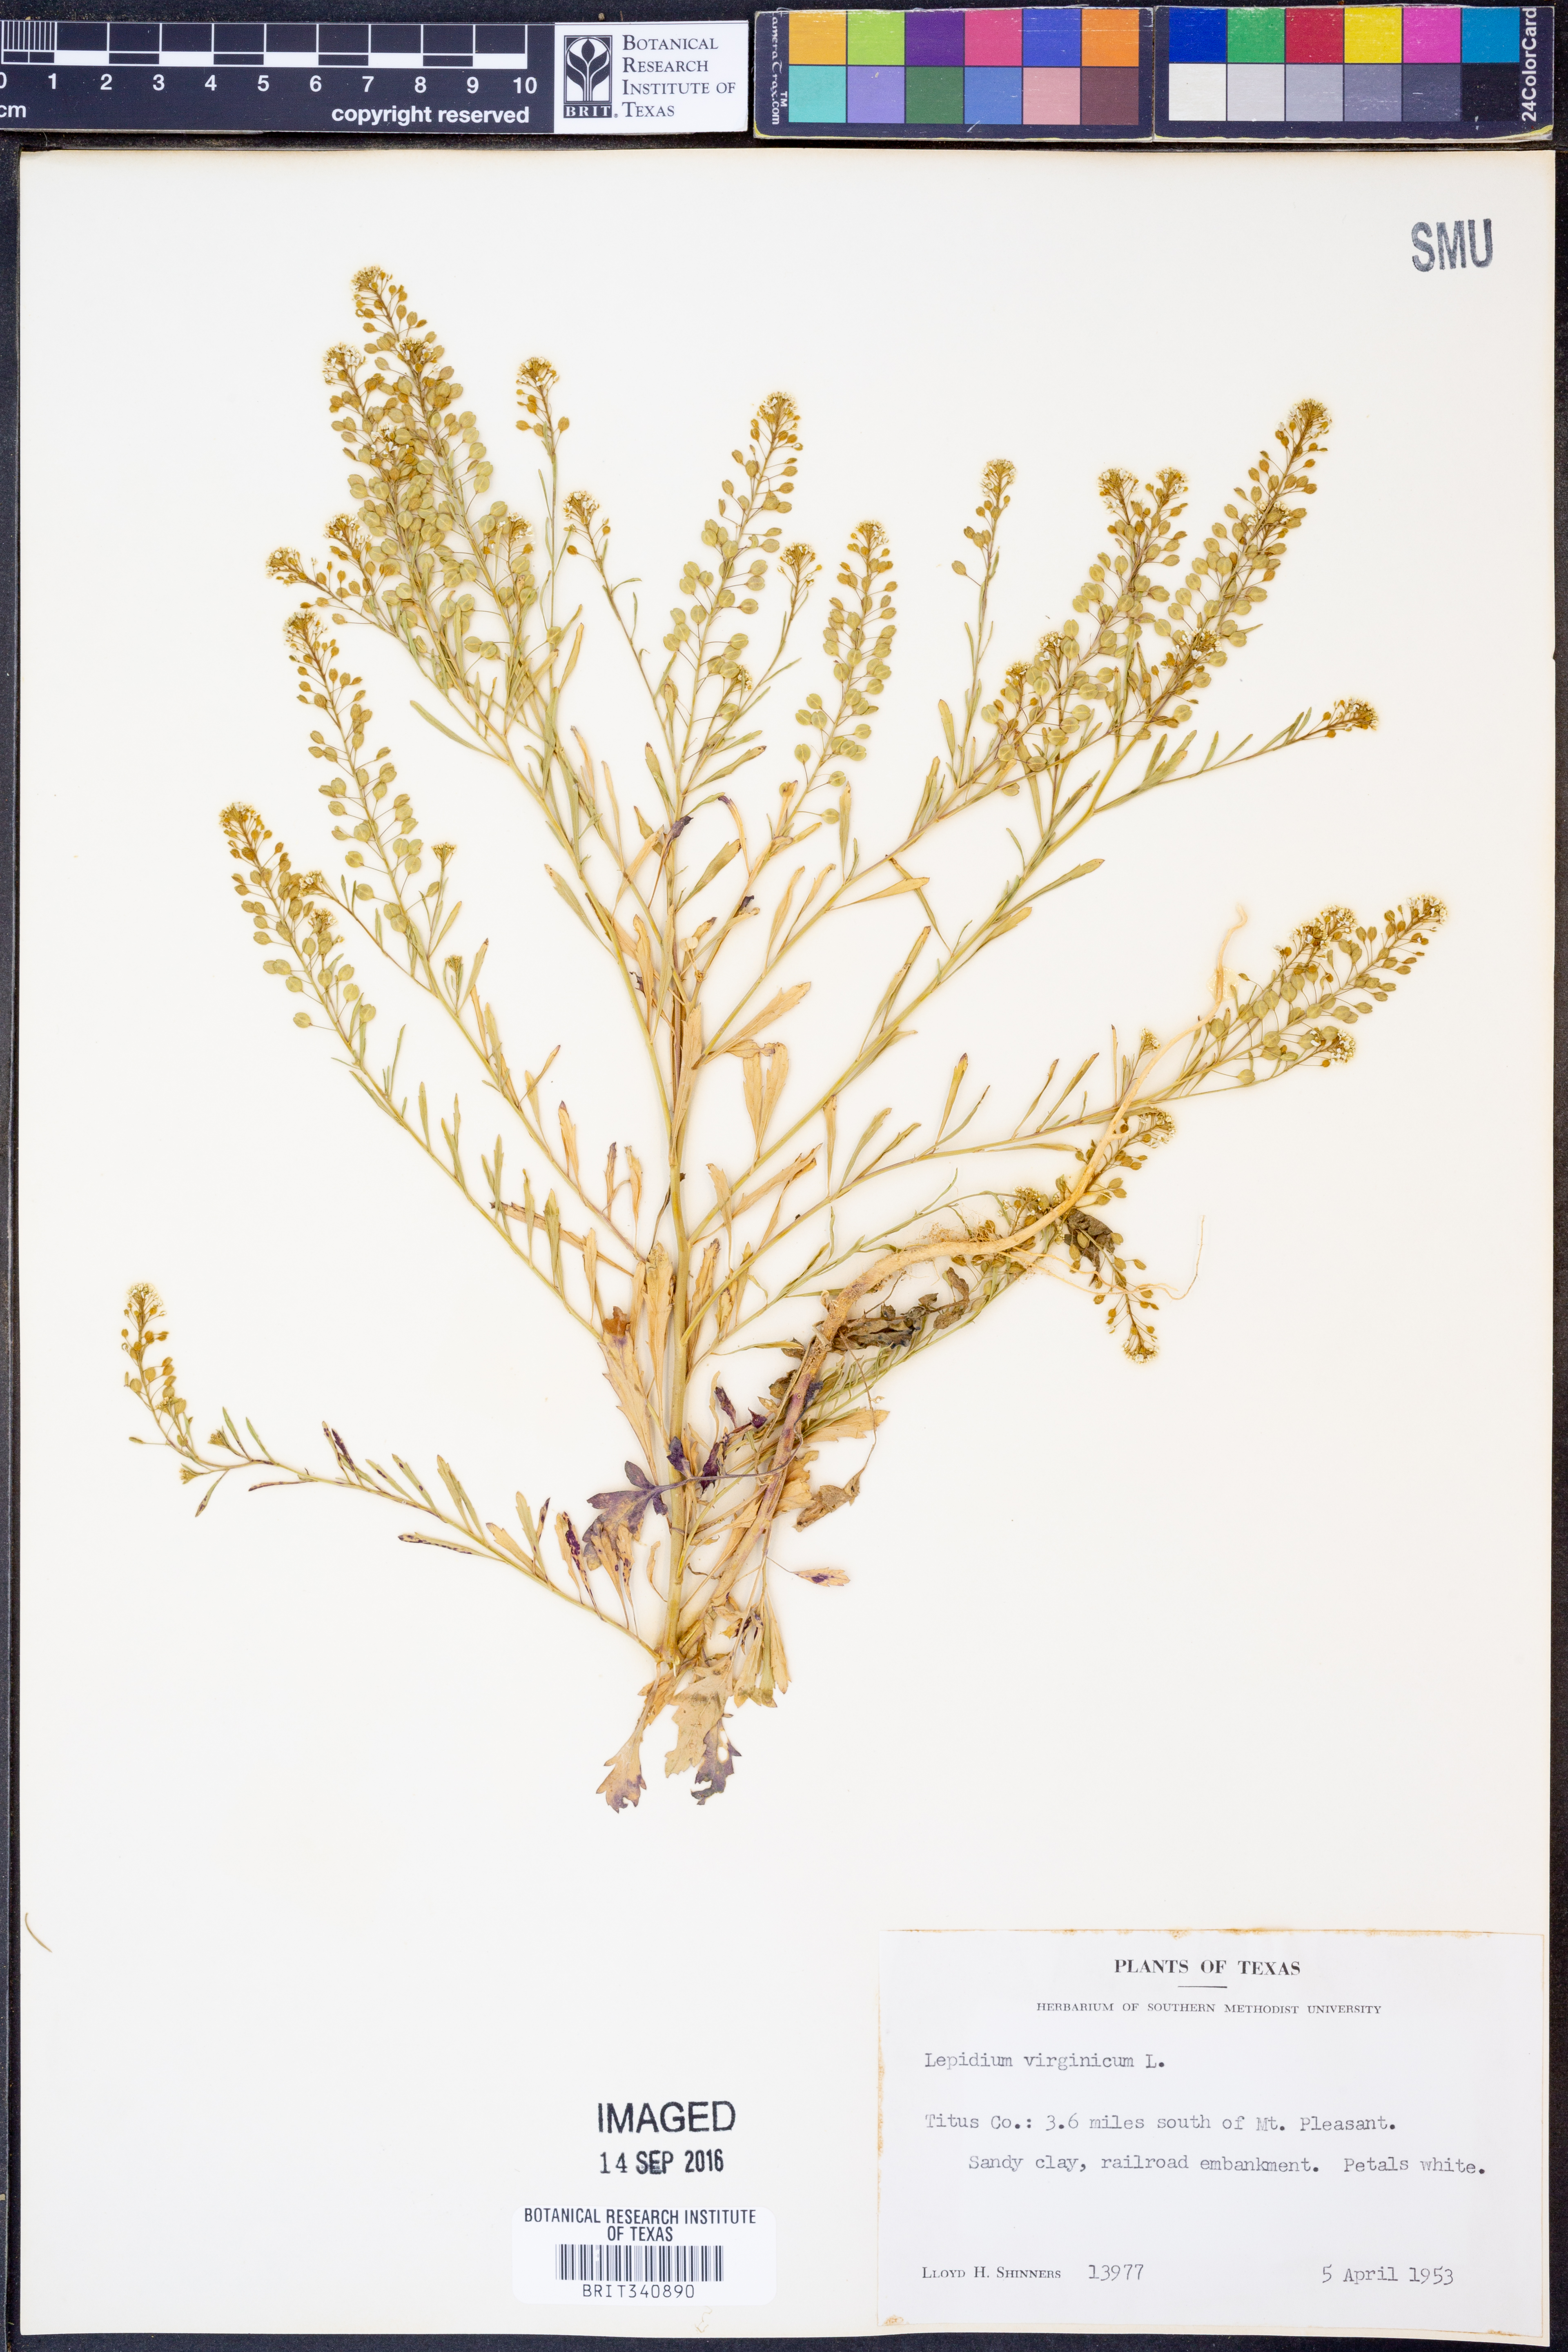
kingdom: Plantae
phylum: Tracheophyta
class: Magnoliopsida
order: Brassicales
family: Brassicaceae
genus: Lepidium
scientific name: Lepidium virginicum
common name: Least pepperwort
